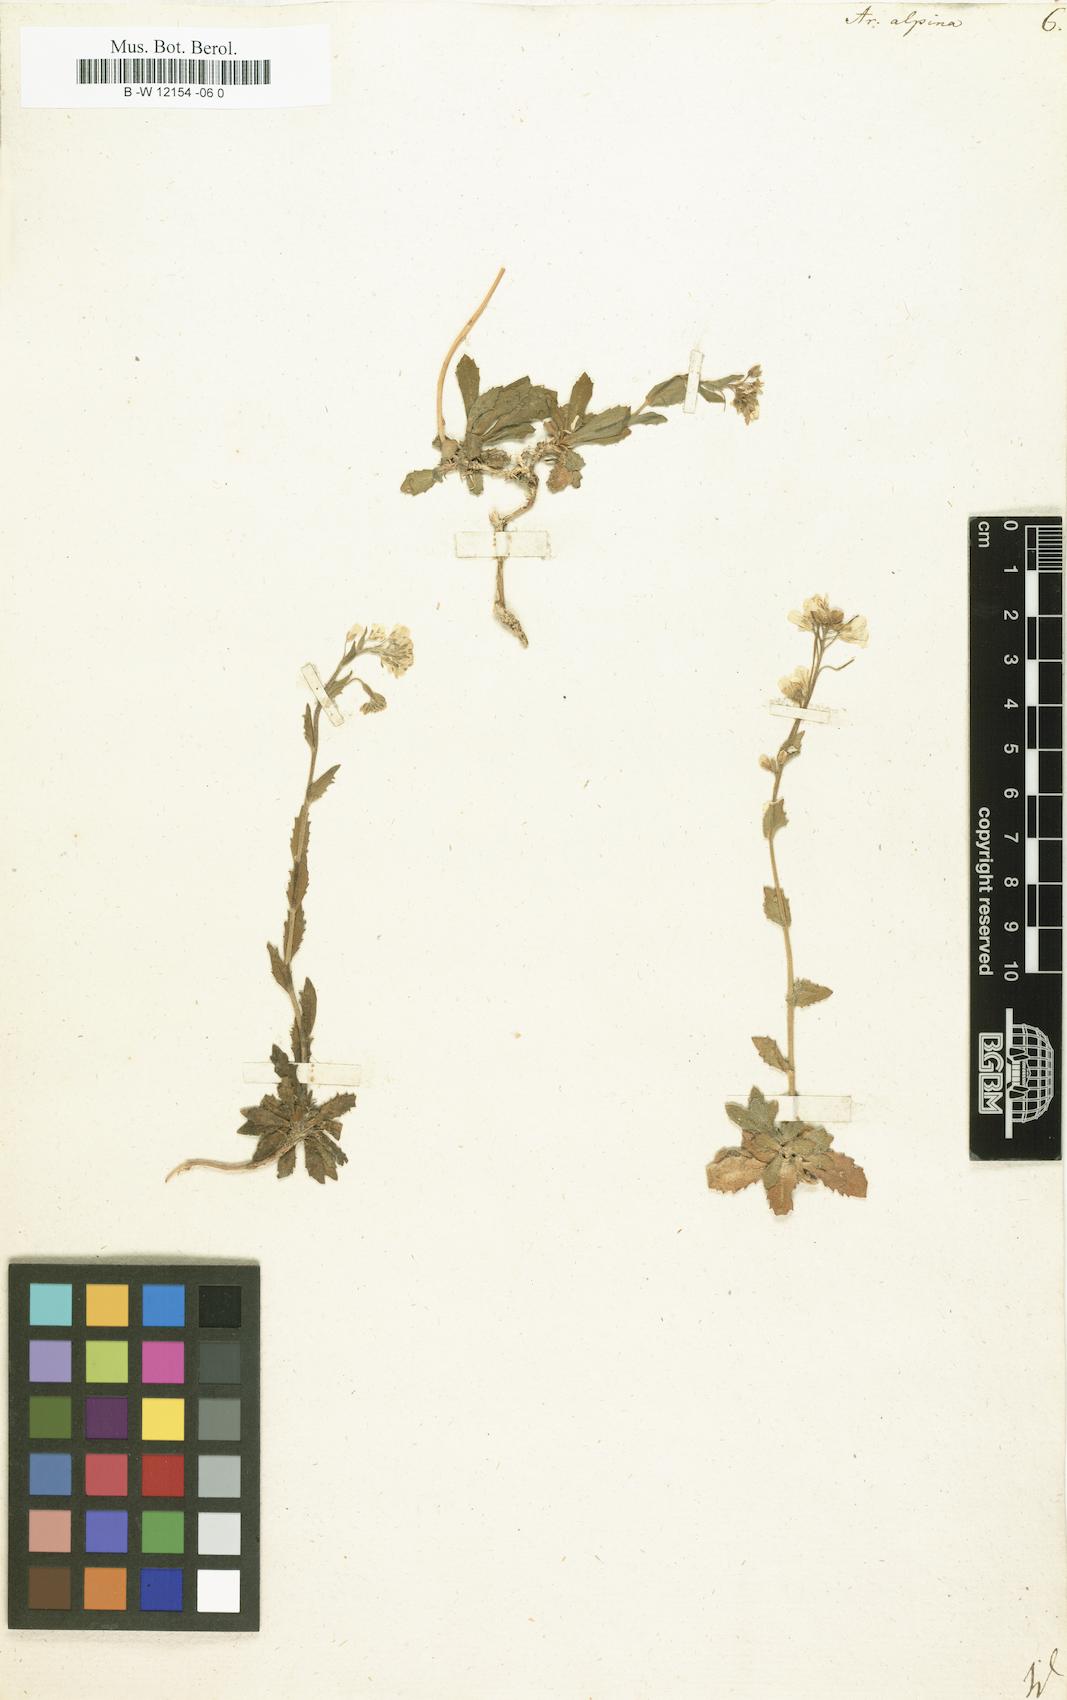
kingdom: Plantae
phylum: Tracheophyta
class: Magnoliopsida
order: Brassicales
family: Brassicaceae
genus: Arabis
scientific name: Arabis alpina
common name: Alpine rock-cress
